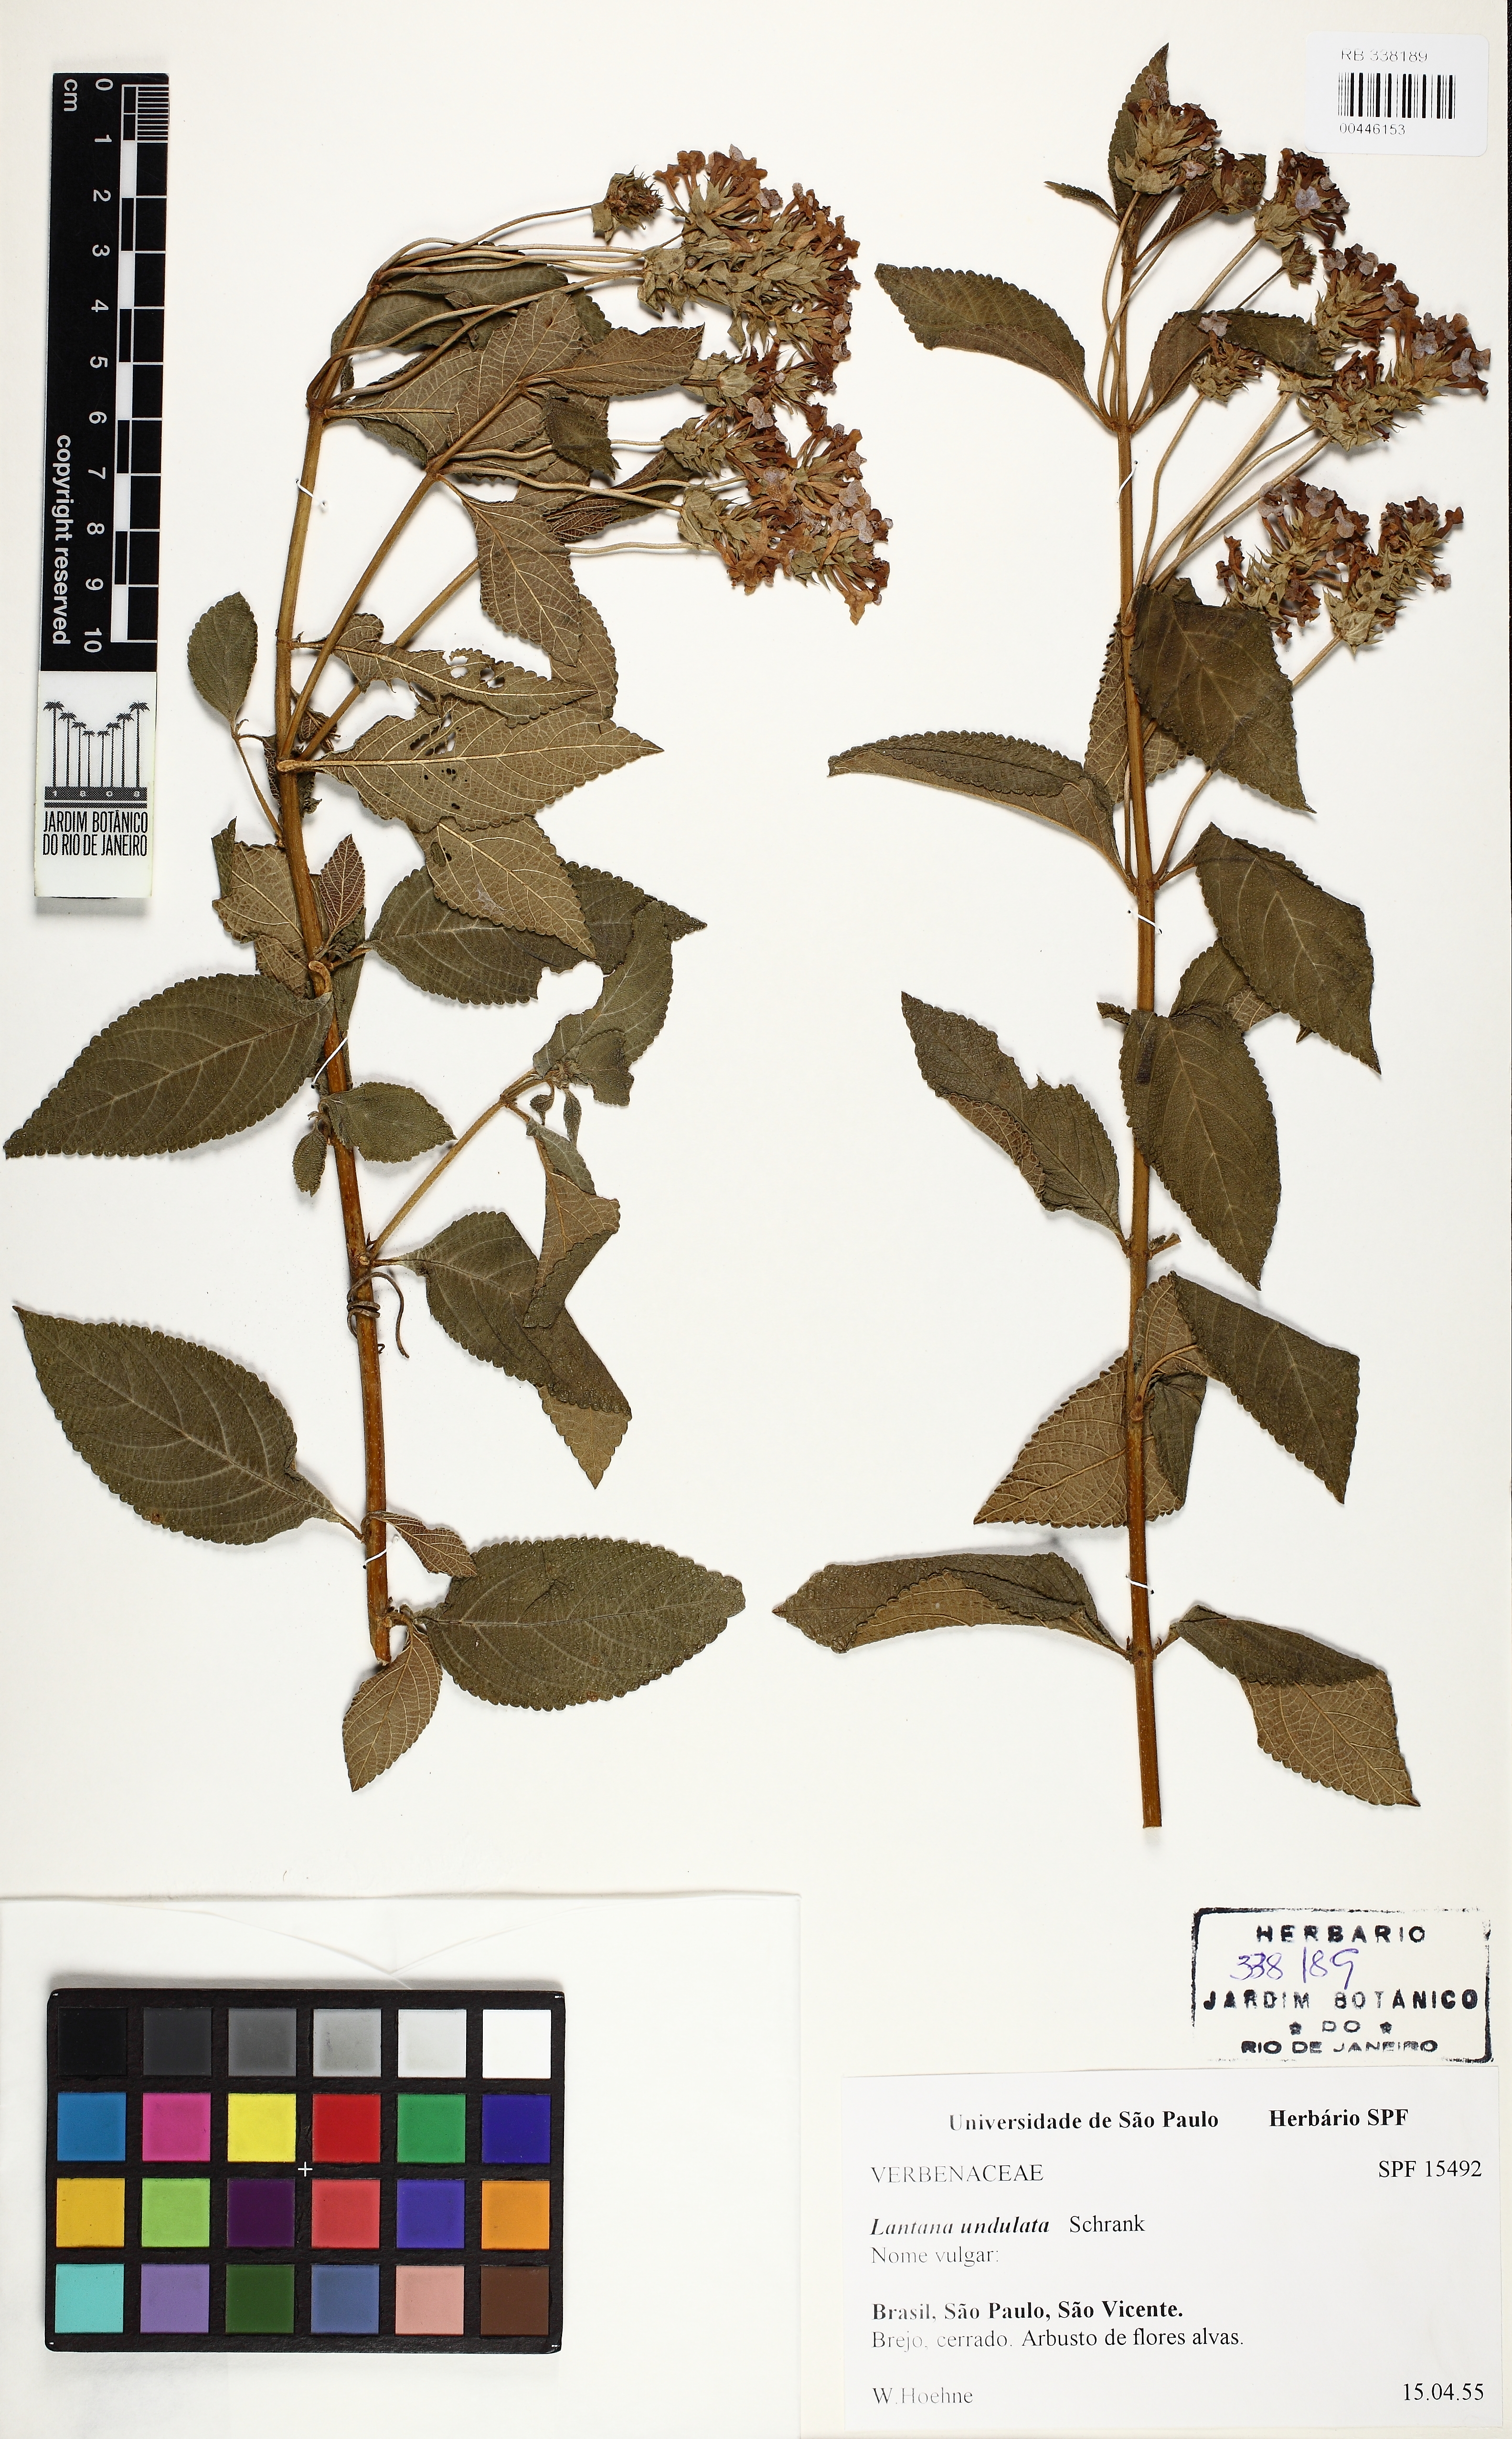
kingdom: Plantae
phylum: Tracheophyta
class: Magnoliopsida
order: Lamiales
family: Verbenaceae
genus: Lantana
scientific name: Lantana undulata
